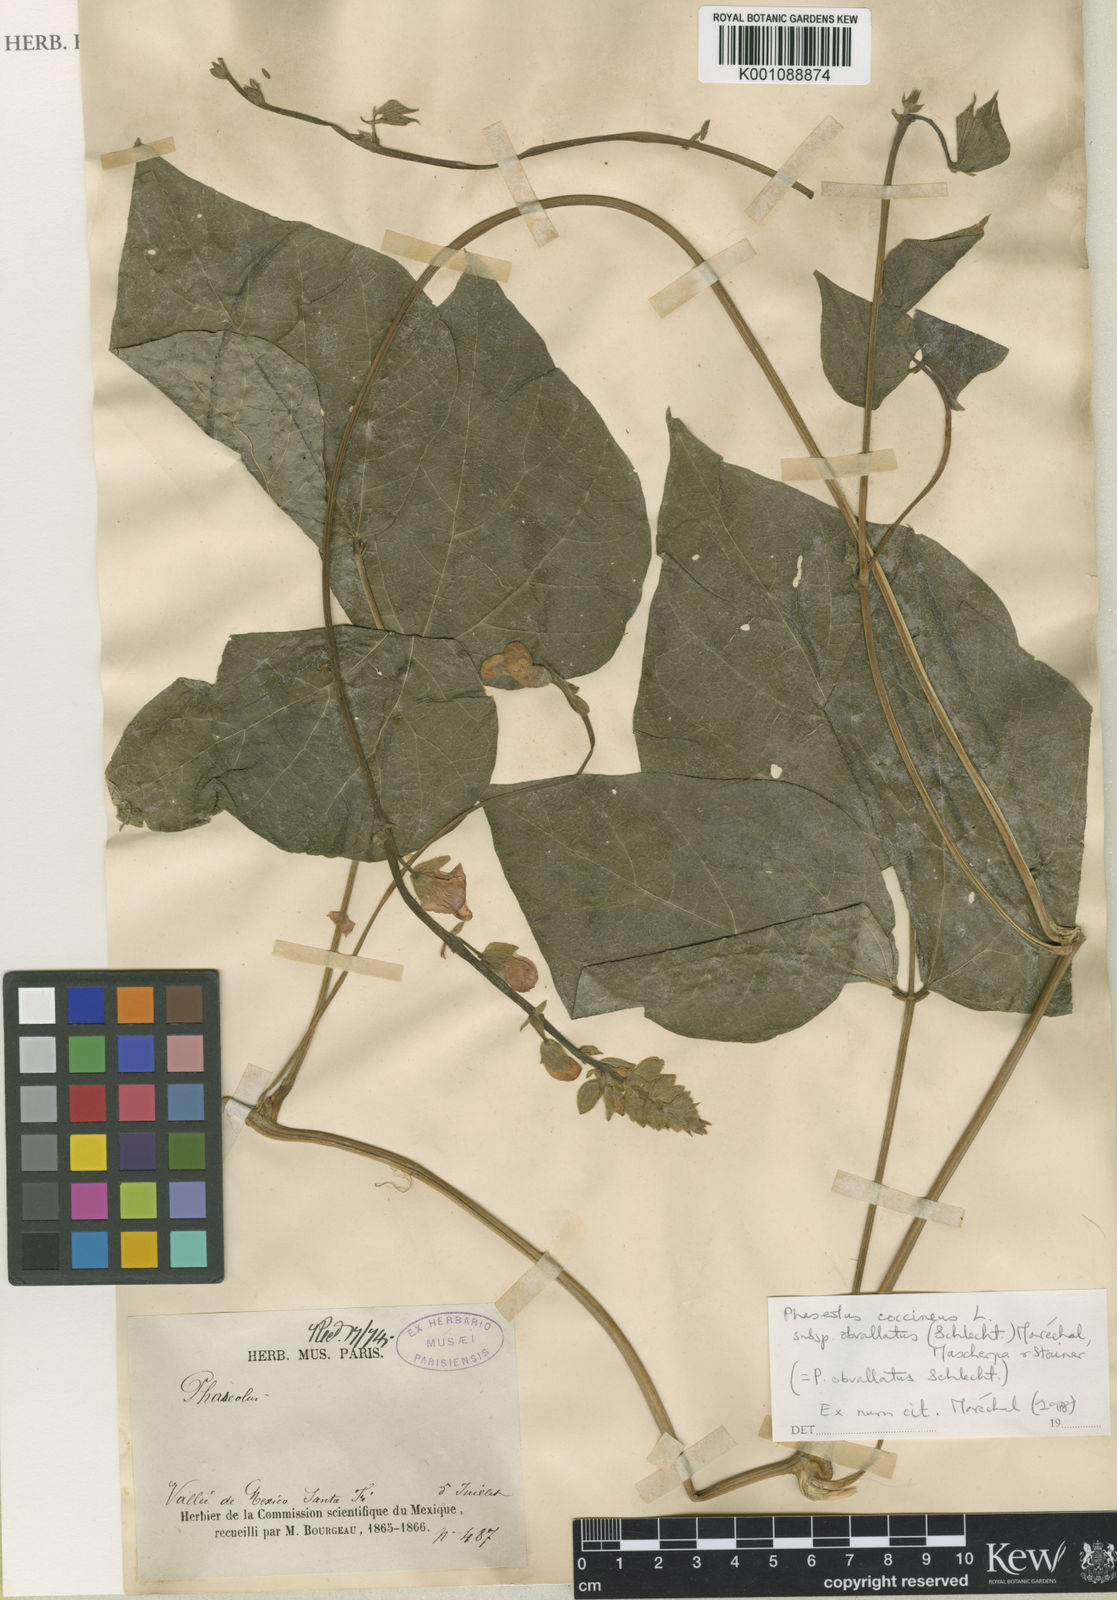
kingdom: Plantae
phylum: Tracheophyta
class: Magnoliopsida
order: Fabales
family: Fabaceae
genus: Phaseolus
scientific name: Phaseolus coccineus
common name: Runner bean
